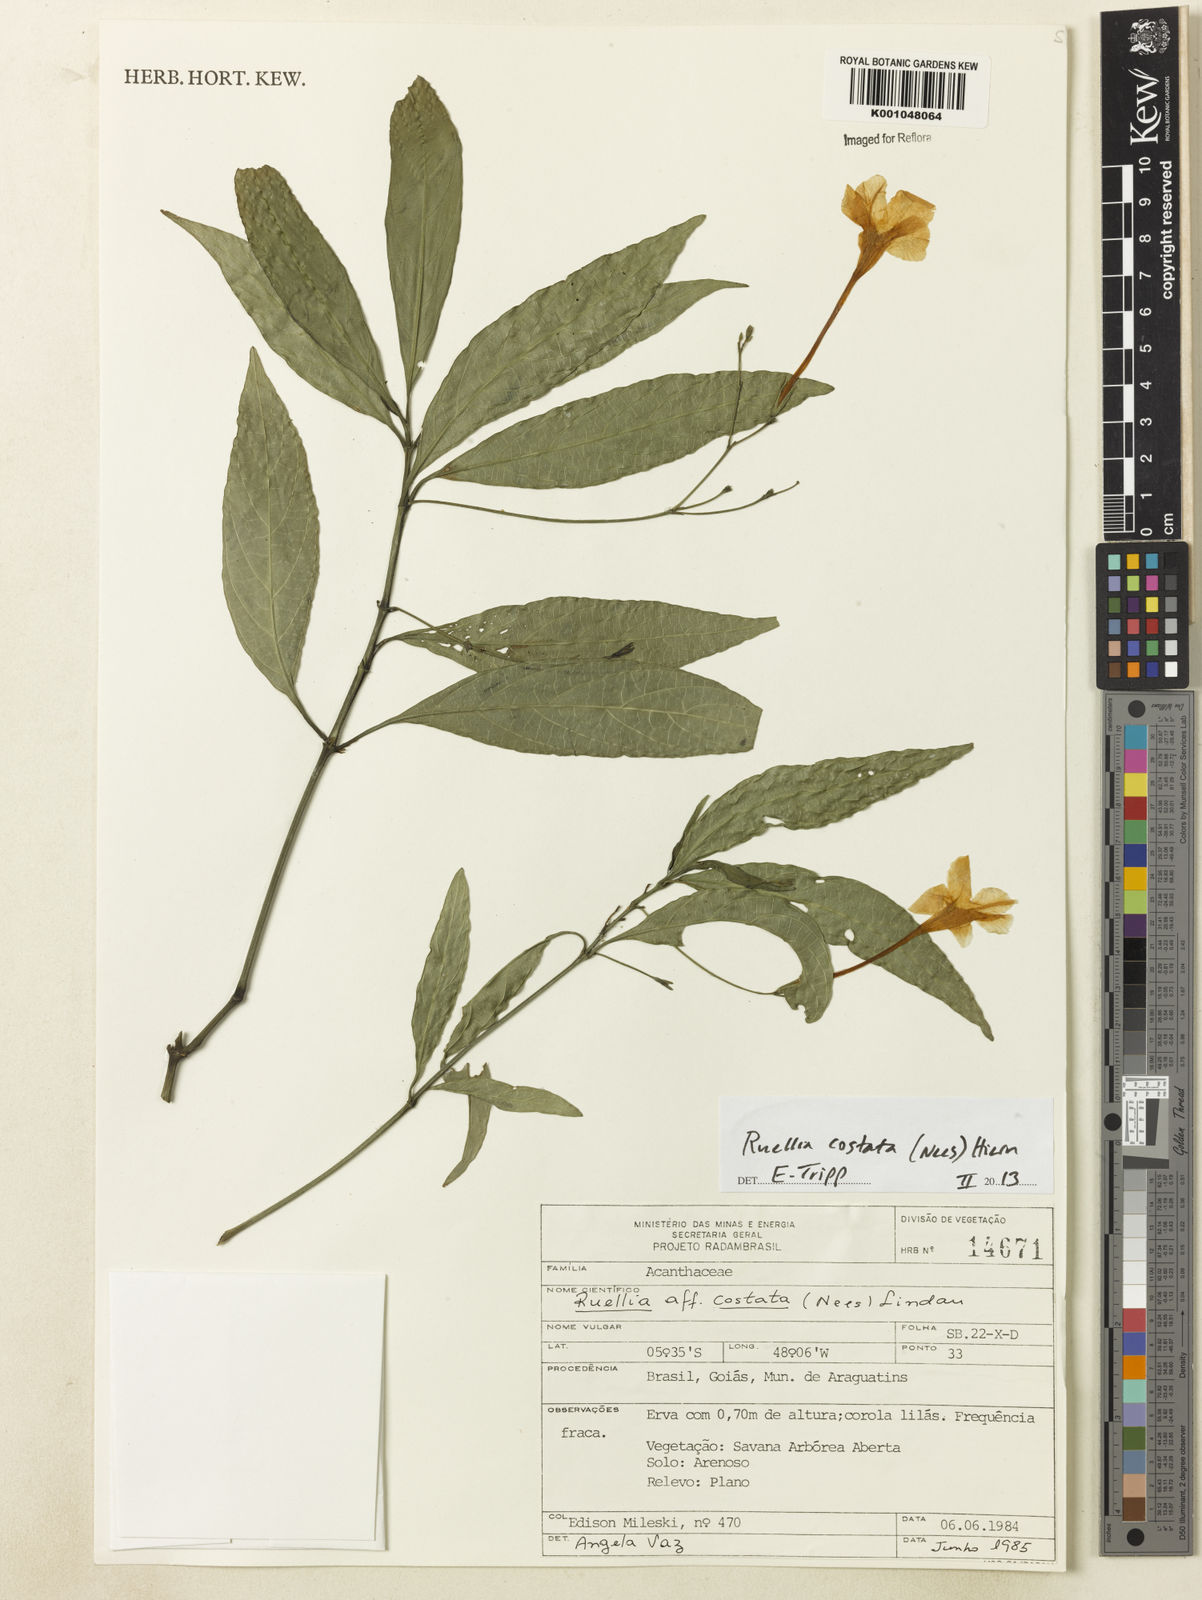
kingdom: Plantae
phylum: Tracheophyta
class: Magnoliopsida
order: Lamiales
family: Acanthaceae
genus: Ruellia
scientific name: Ruellia costata
